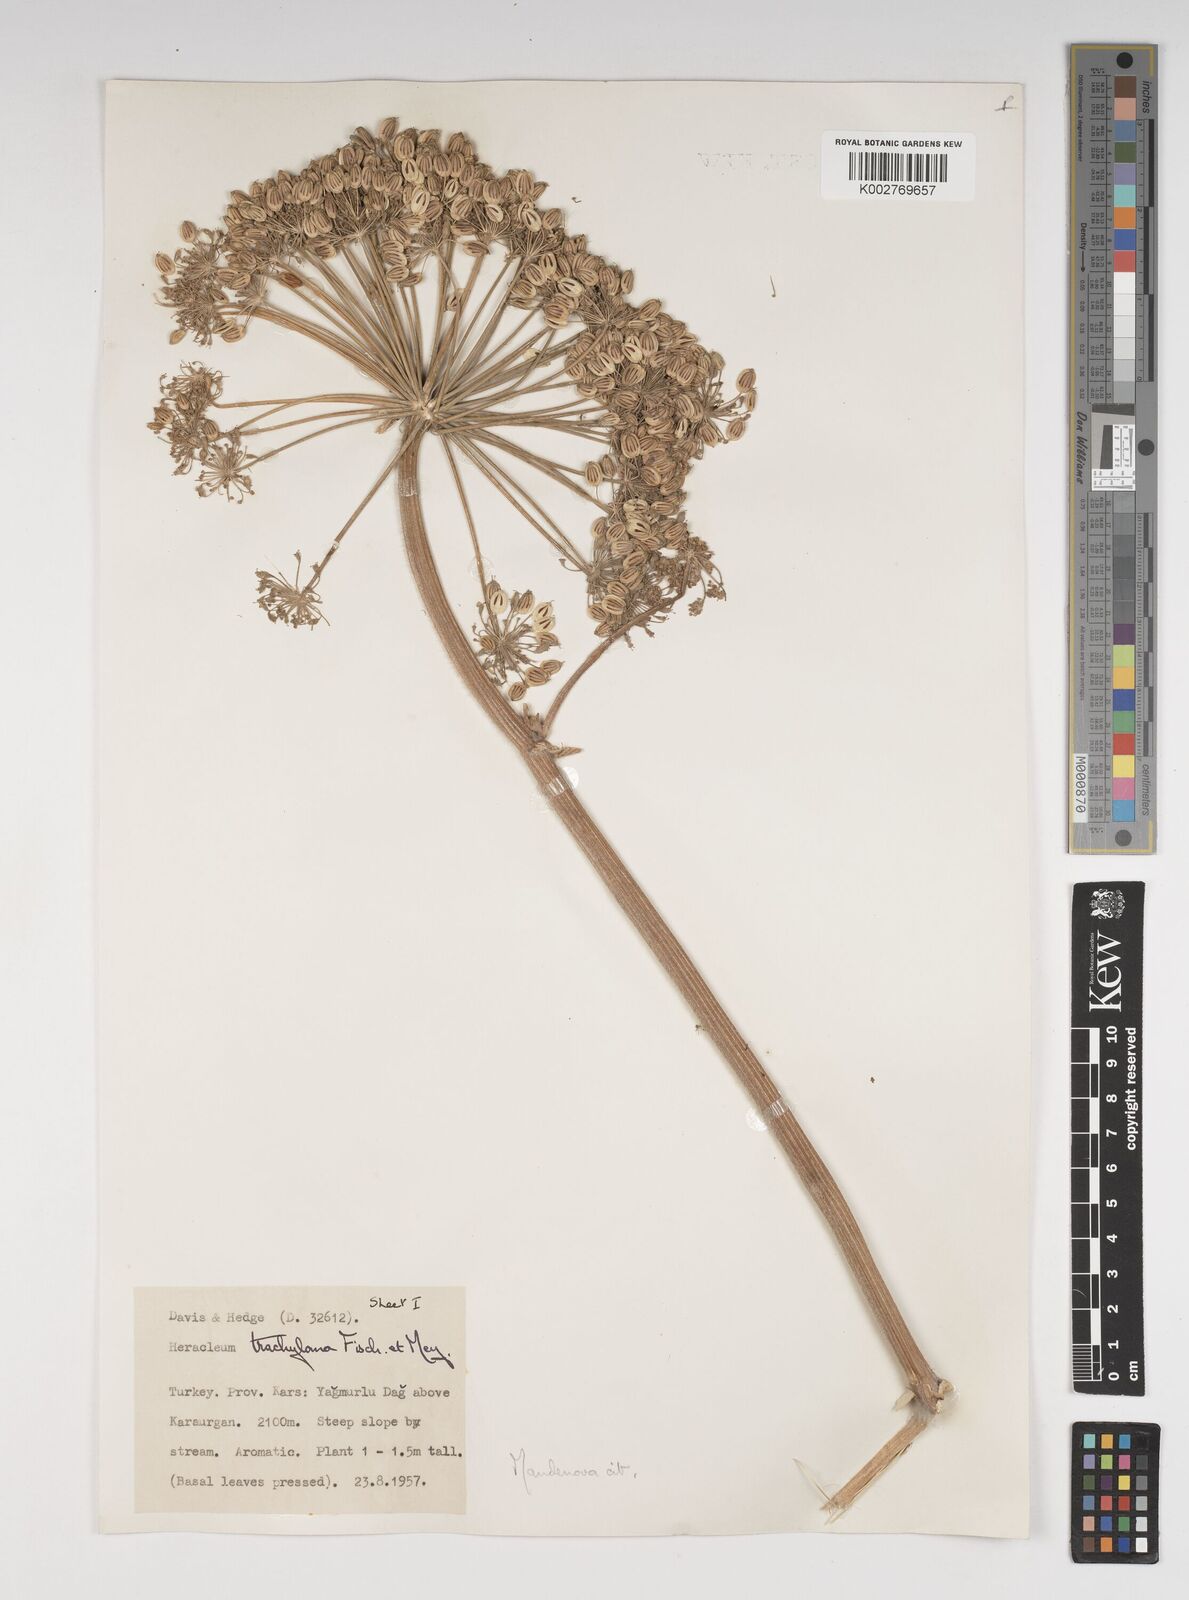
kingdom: Plantae
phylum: Tracheophyta
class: Magnoliopsida
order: Apiales
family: Apiaceae
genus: Heracleum
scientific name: Heracleum trachyloma
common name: Downy cow-parsnip
